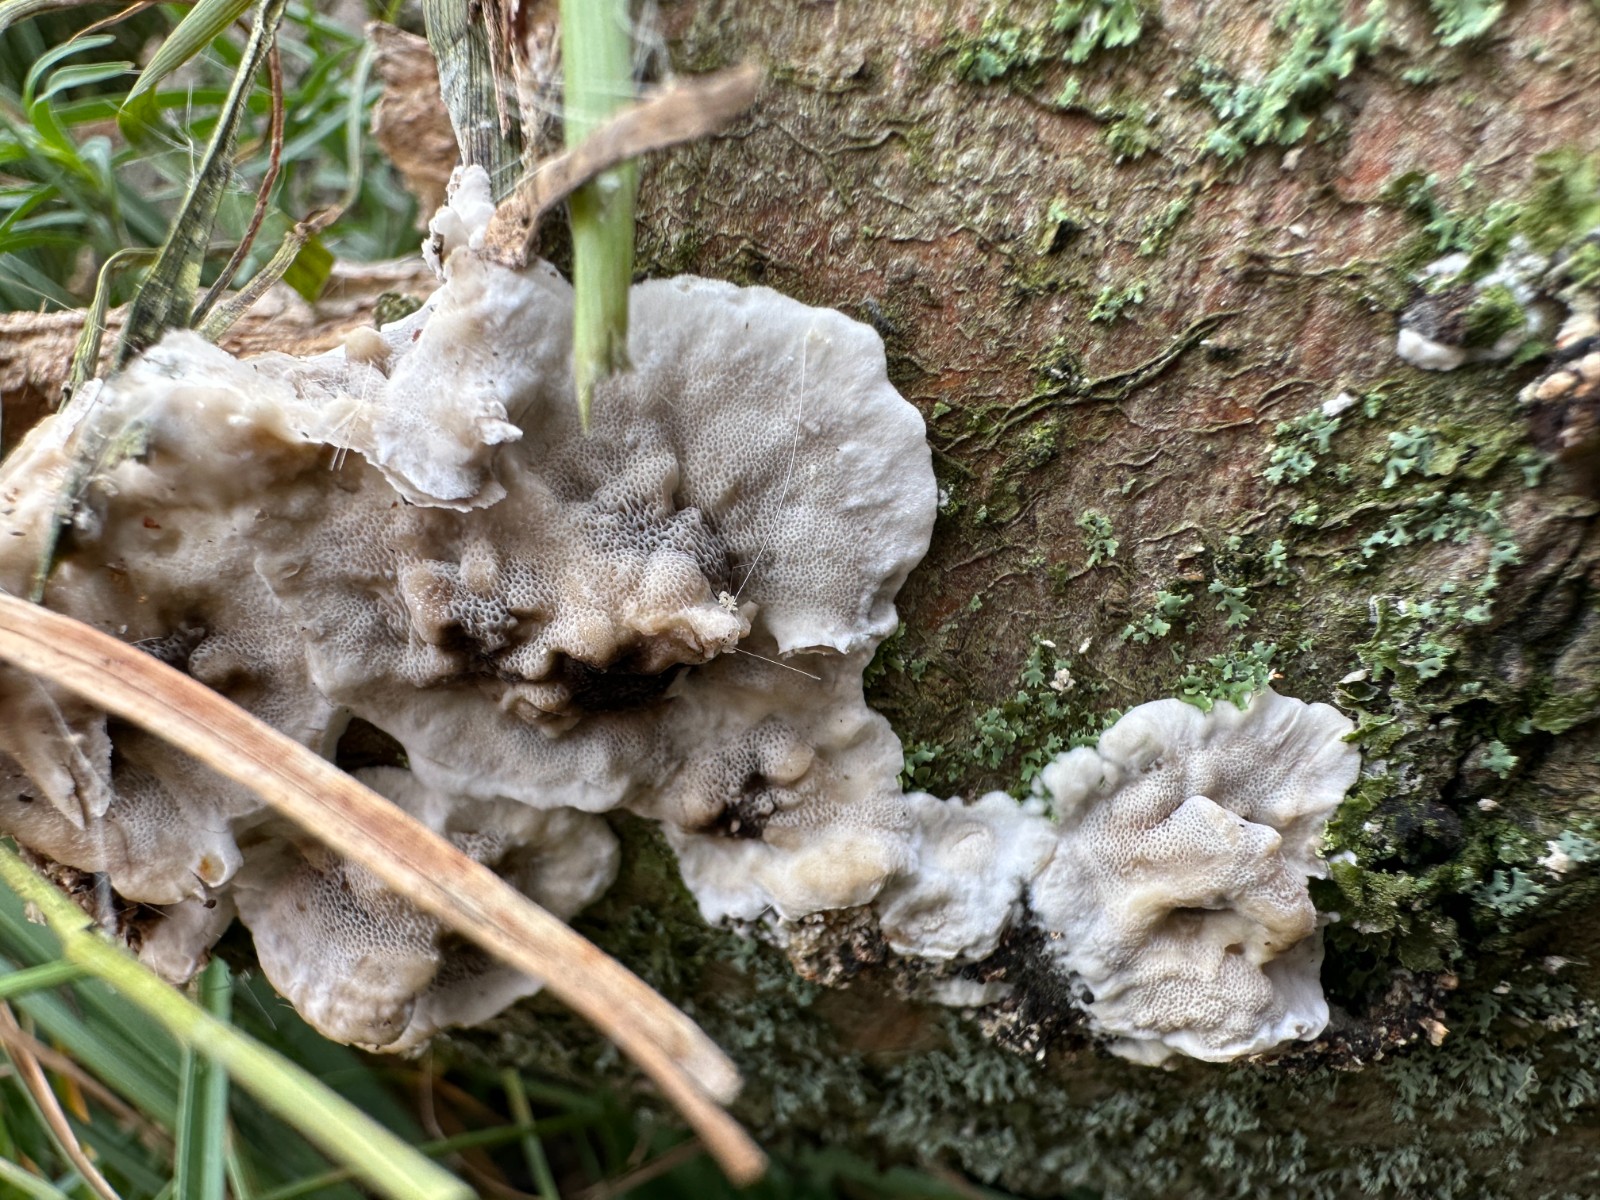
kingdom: Fungi
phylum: Basidiomycota
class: Agaricomycetes
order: Polyporales
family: Phanerochaetaceae
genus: Bjerkandera
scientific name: Bjerkandera adusta
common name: sveden sodporesvamp
